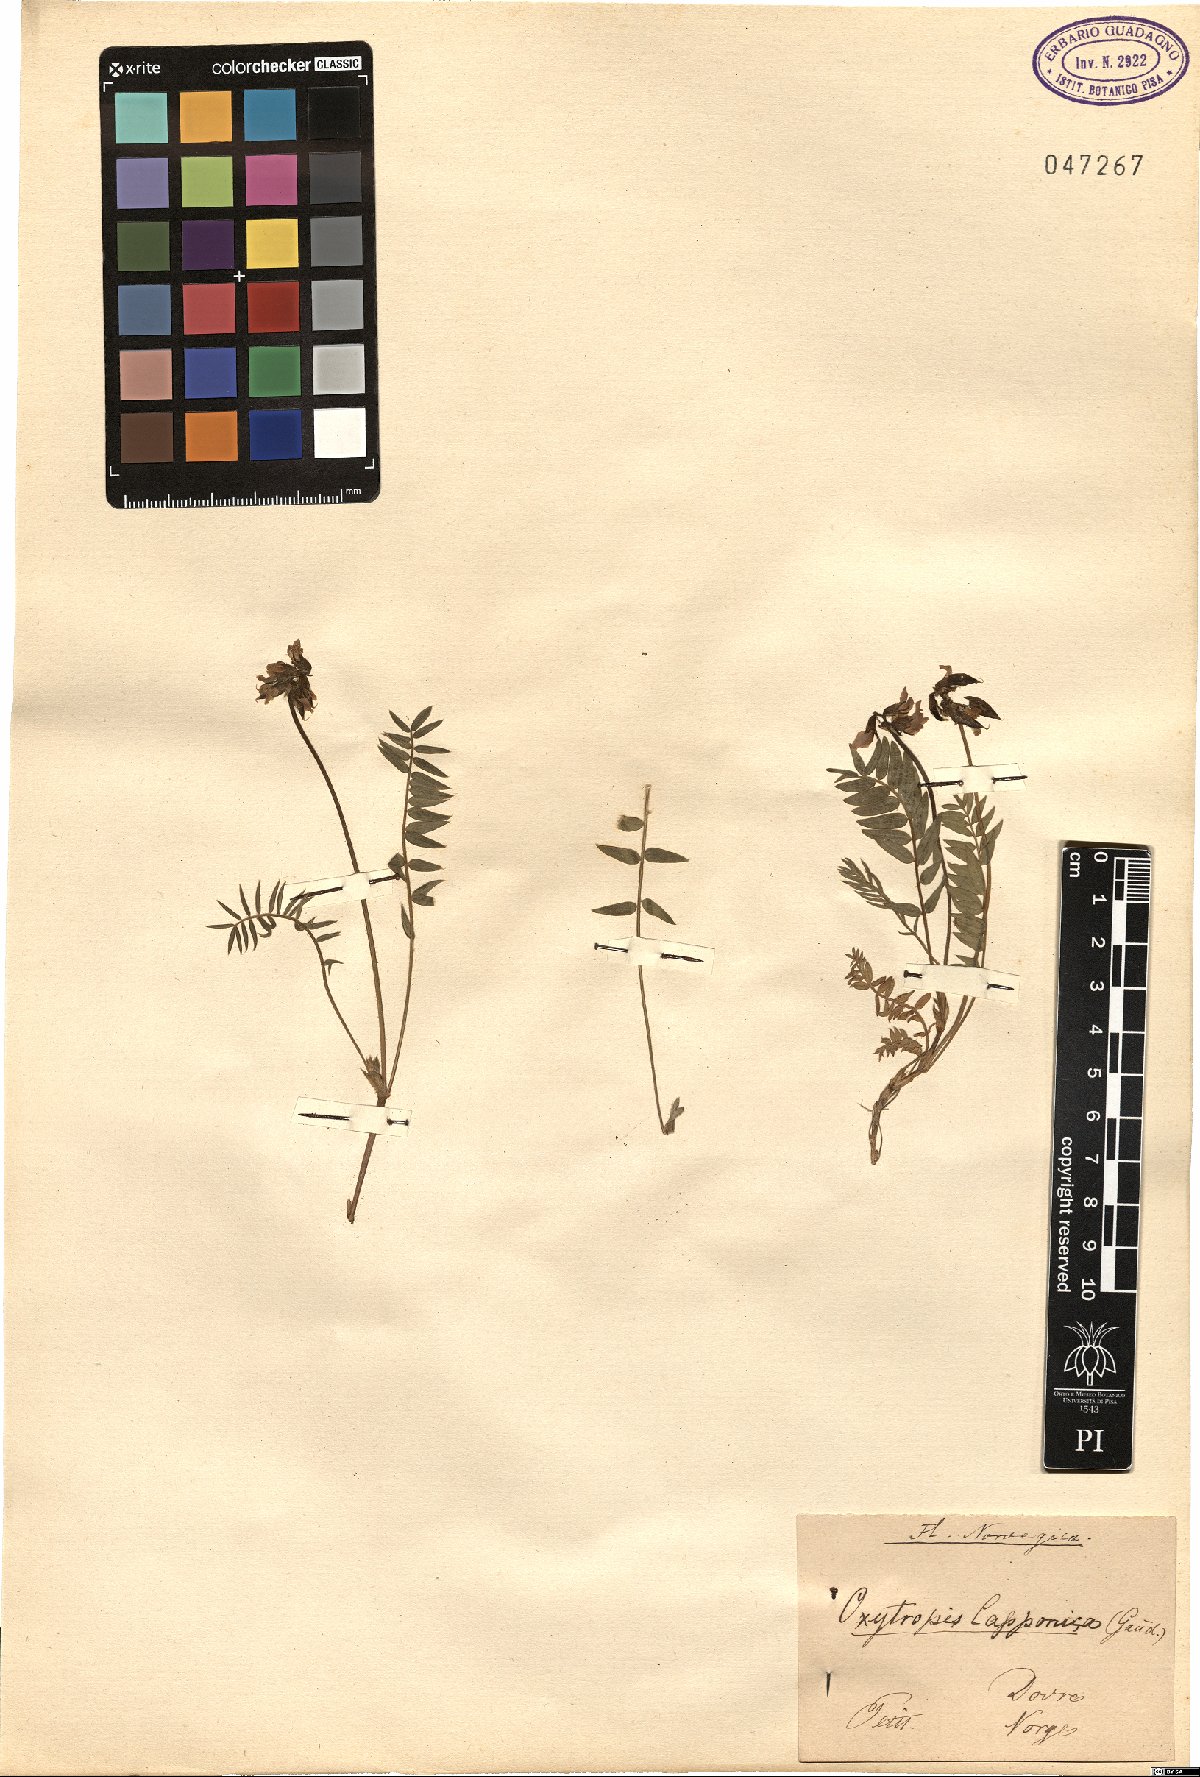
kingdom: Plantae
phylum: Tracheophyta
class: Magnoliopsida
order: Fabales
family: Fabaceae
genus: Oxytropis
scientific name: Oxytropis lapponica
